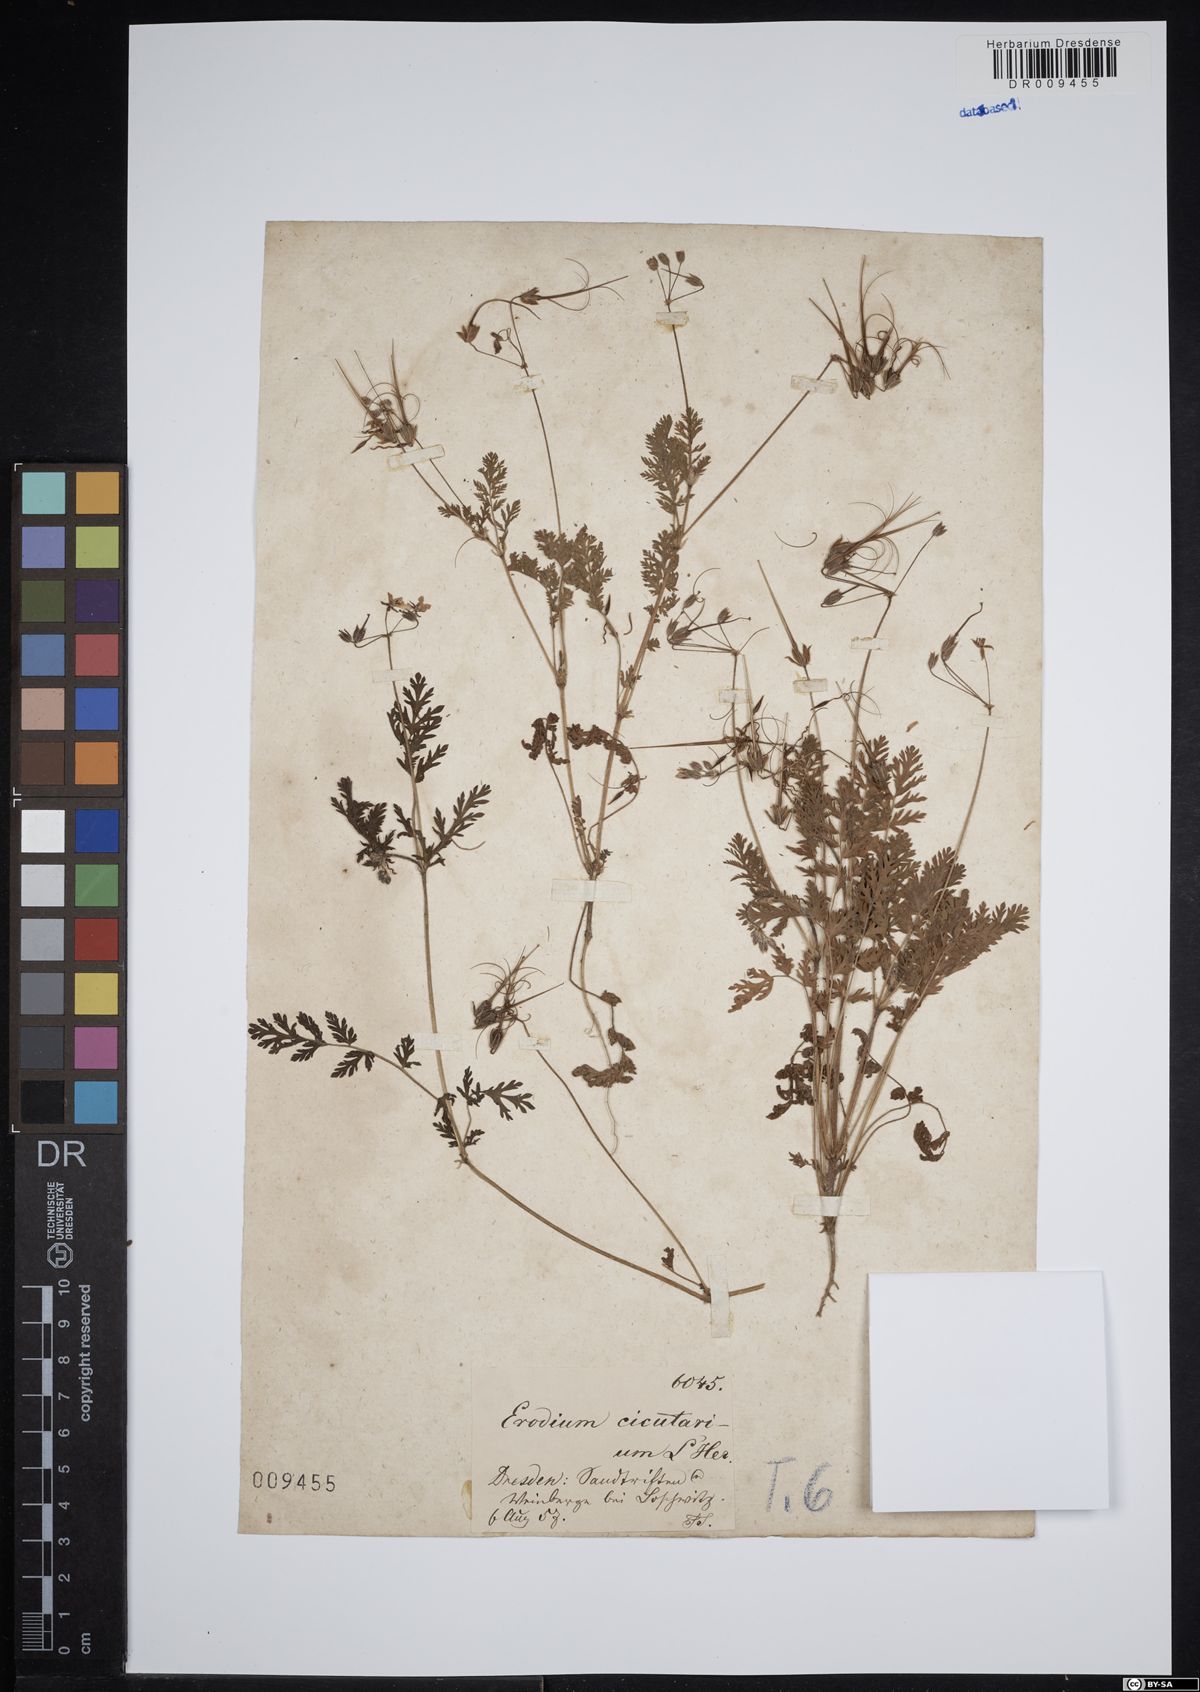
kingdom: Plantae
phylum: Tracheophyta
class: Magnoliopsida
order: Geraniales
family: Geraniaceae
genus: Erodium
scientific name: Erodium cicutarium
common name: Common stork's-bill
